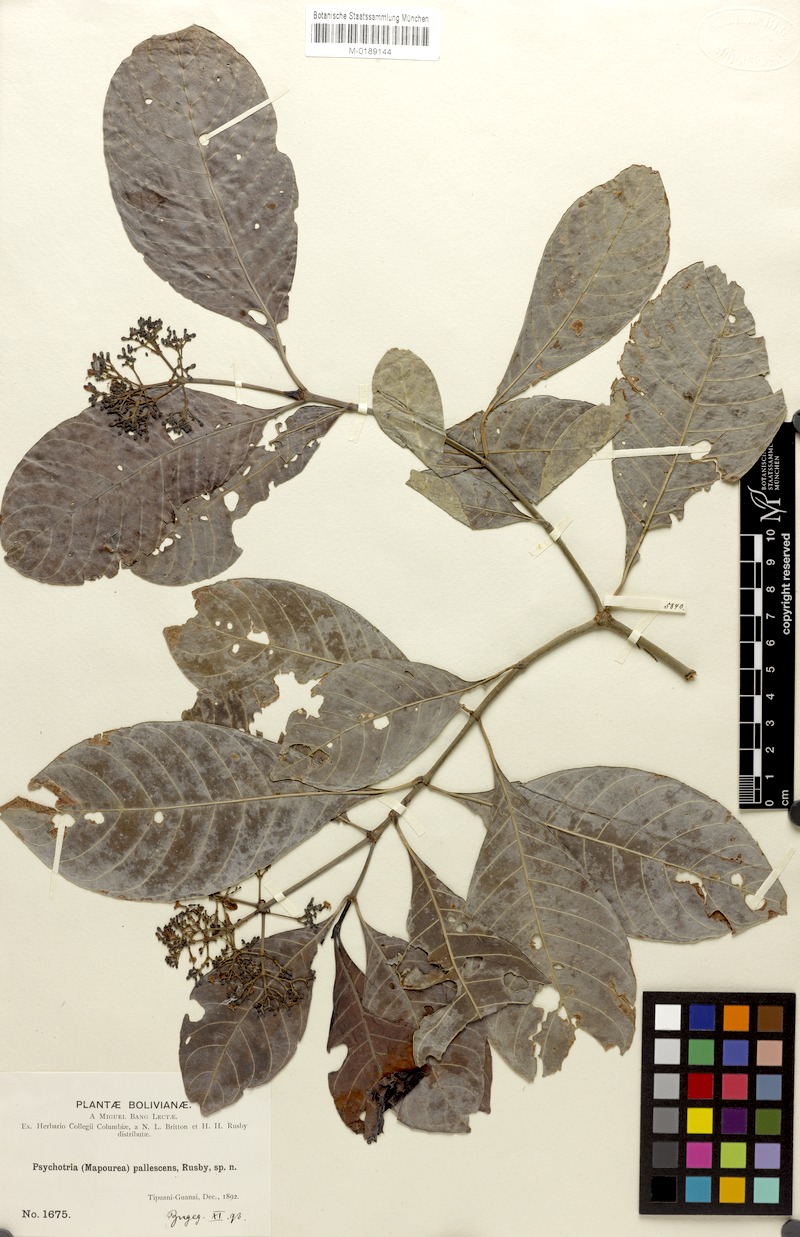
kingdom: Plantae
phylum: Tracheophyta
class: Magnoliopsida
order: Gentianales
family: Rubiaceae
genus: Psychotria
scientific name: Psychotria carthagenensis
